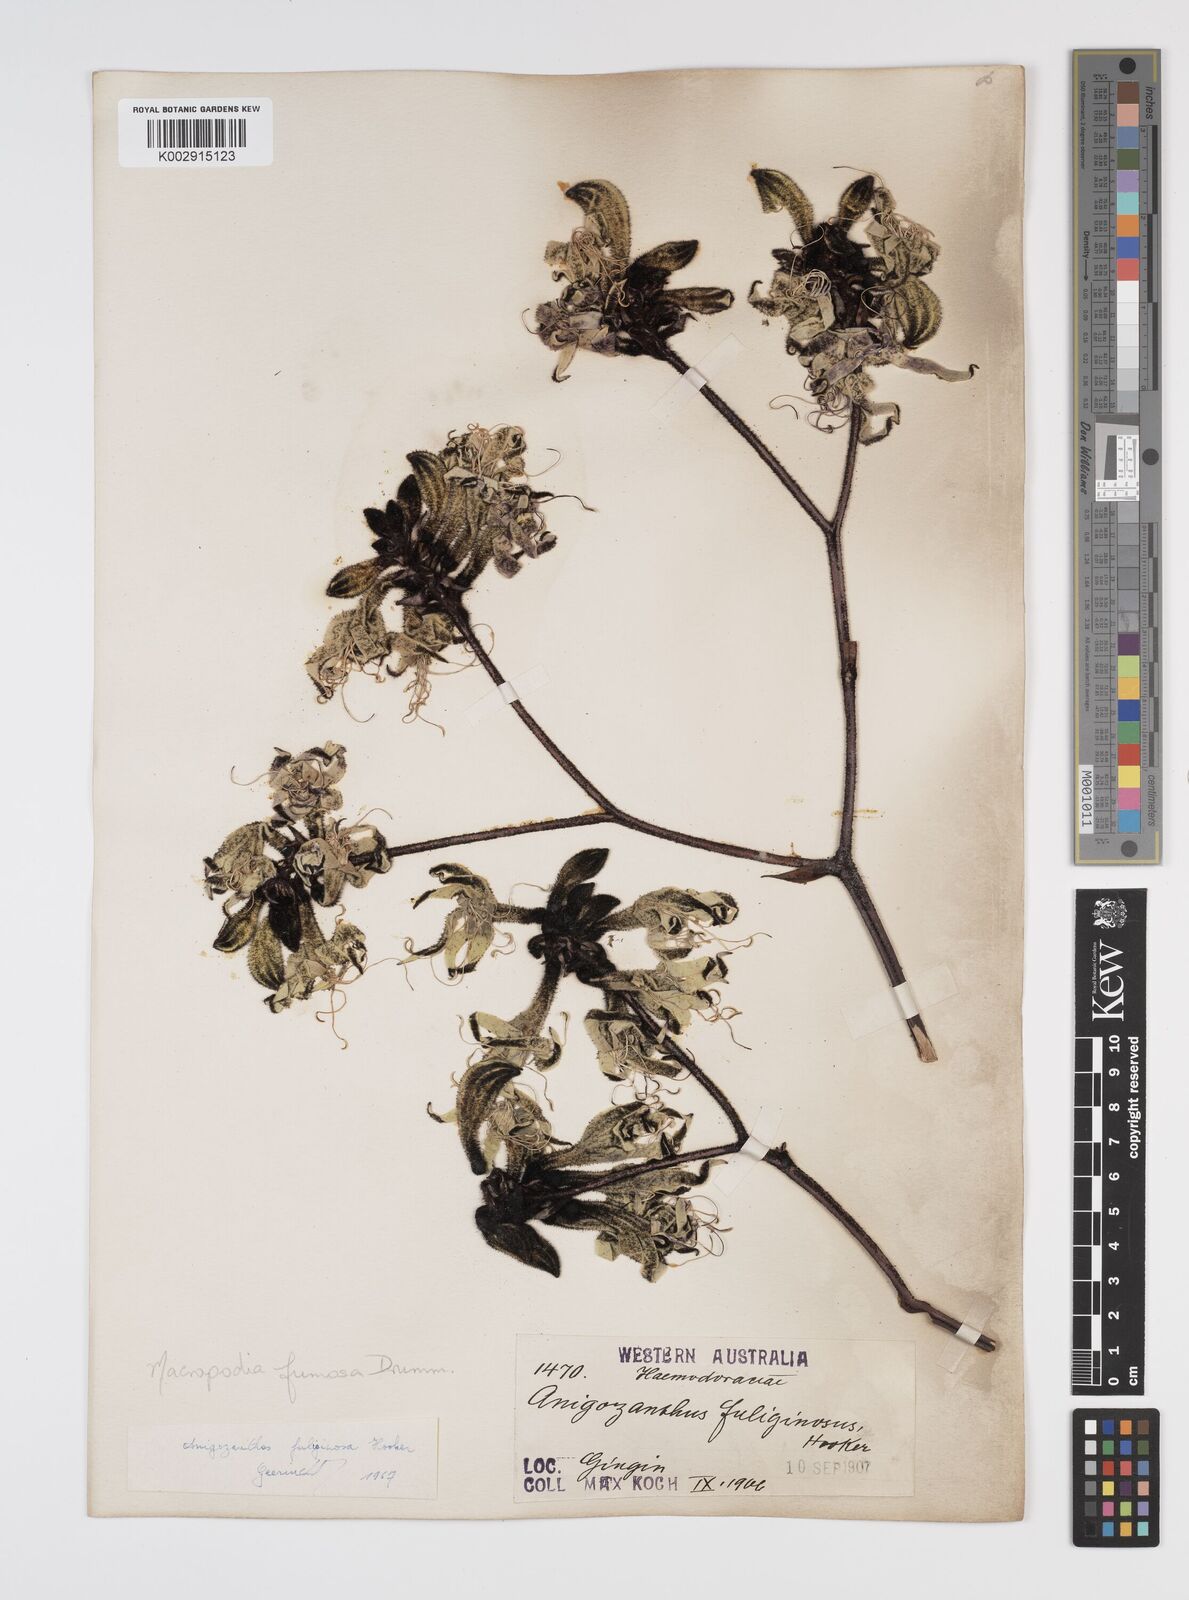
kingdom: Plantae
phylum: Tracheophyta
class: Liliopsida
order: Commelinales
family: Haemodoraceae
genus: Macropidia
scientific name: Macropidia fuliginosa
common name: Black kangaroo-paw
